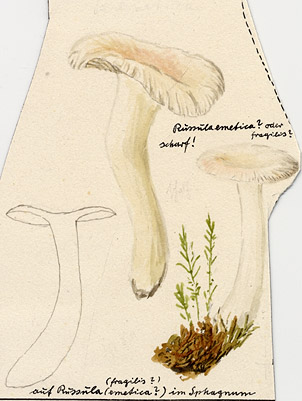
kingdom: Fungi
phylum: Basidiomycota
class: Agaricomycetes
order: Russulales
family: Russulaceae
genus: Russula
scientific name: Russula betularum
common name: Birch brittlegill
